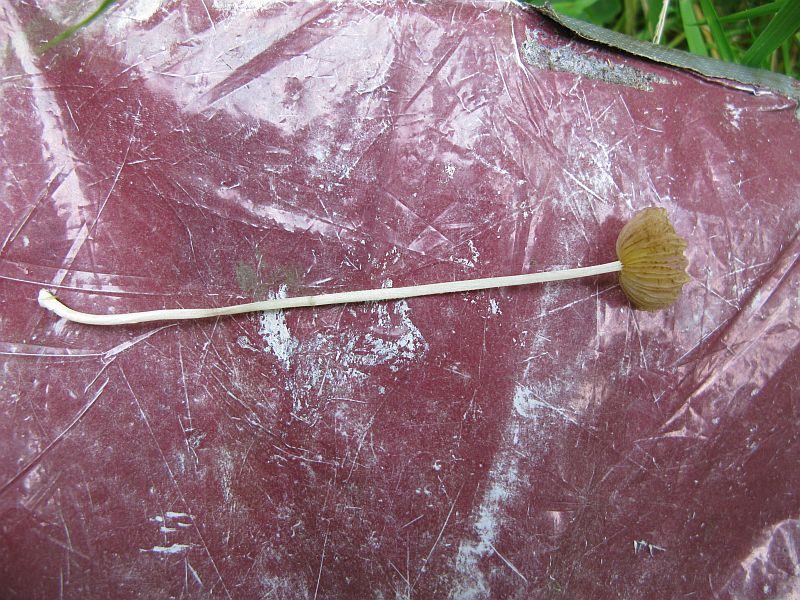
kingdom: Fungi
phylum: Basidiomycota
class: Agaricomycetes
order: Agaricales
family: Bolbitiaceae
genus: Bolbitius
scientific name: Bolbitius titubans
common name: almindelig gulhat
